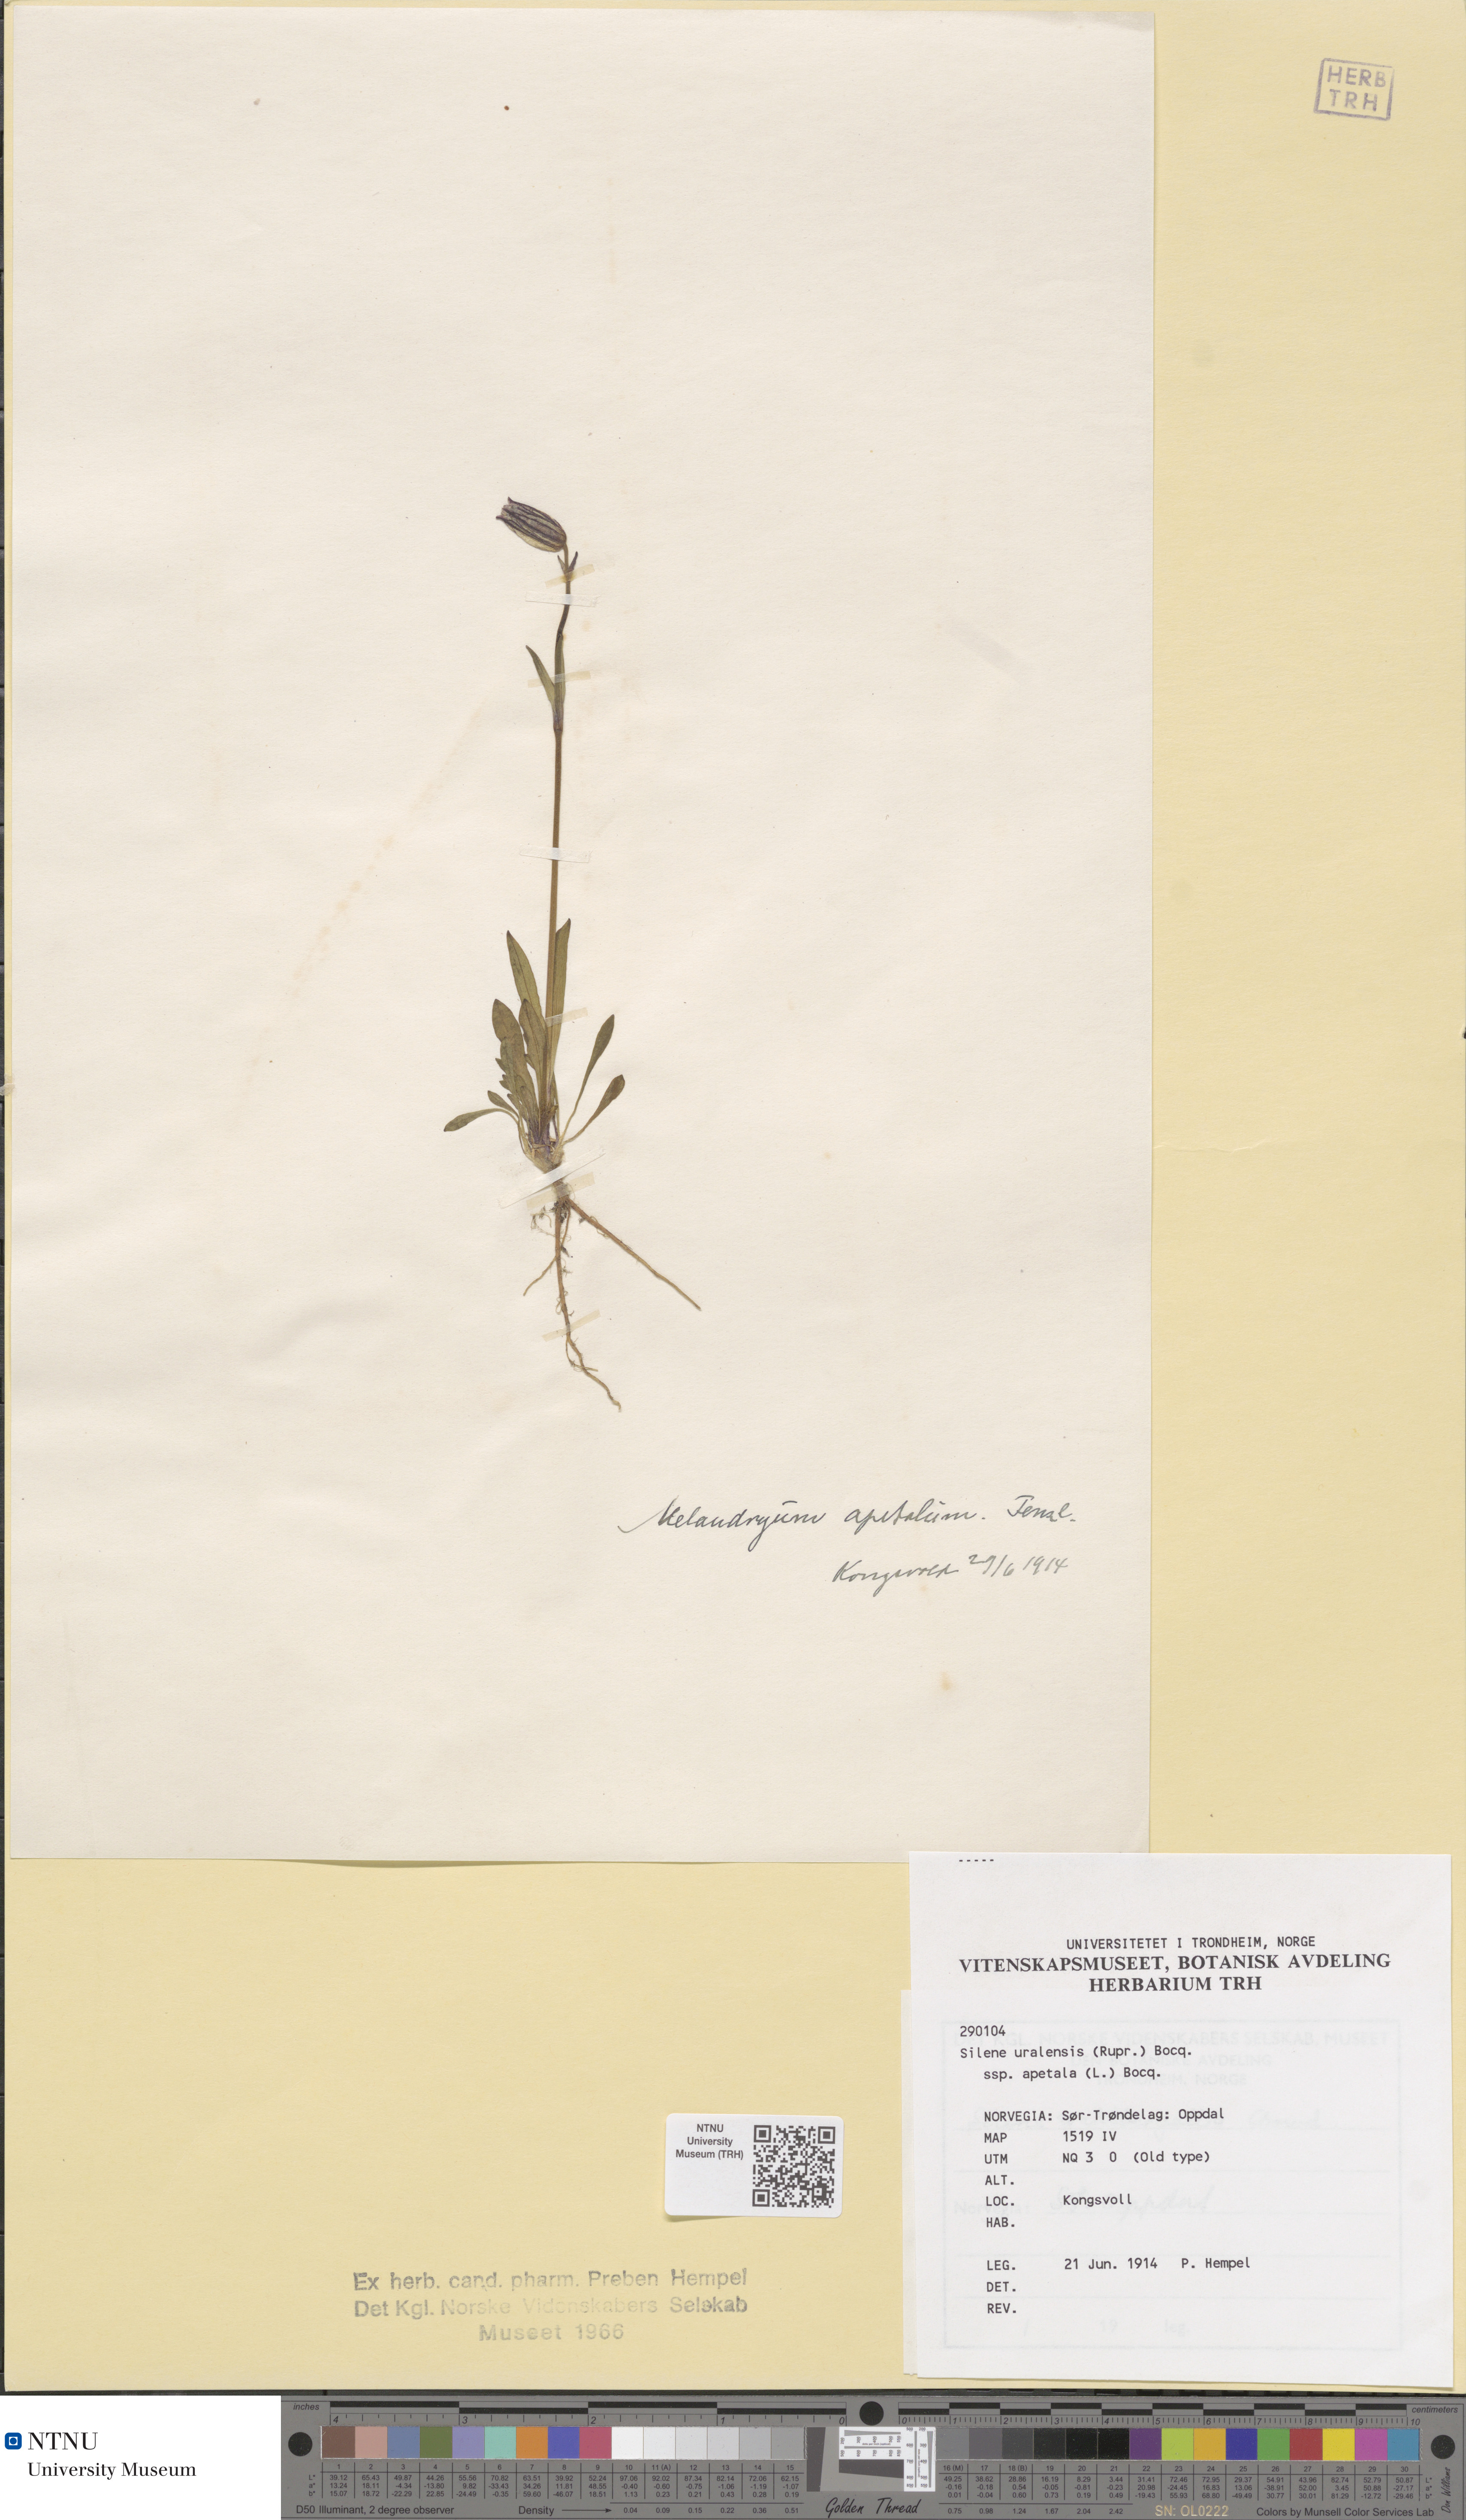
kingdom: Plantae
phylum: Tracheophyta
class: Magnoliopsida
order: Caryophyllales
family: Caryophyllaceae
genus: Silene
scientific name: Silene wahlbergella
